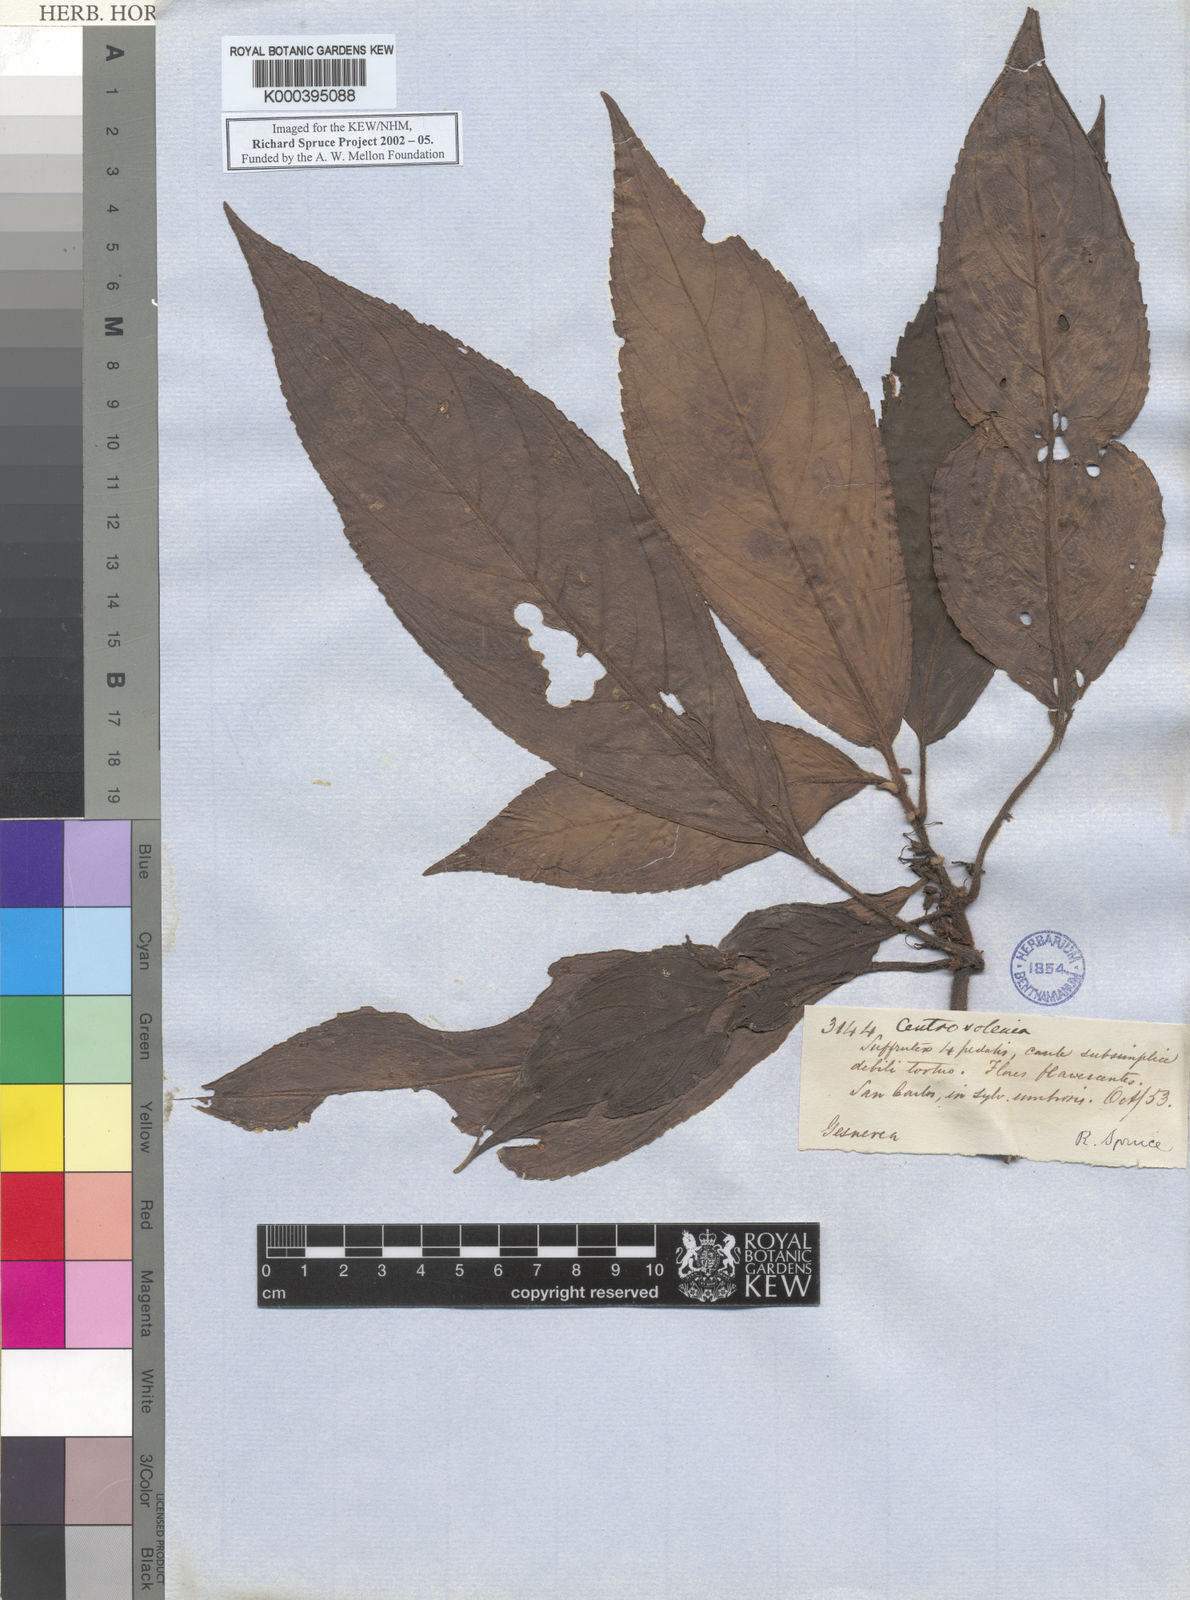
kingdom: Plantae
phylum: Tracheophyta
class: Magnoliopsida
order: Lamiales
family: Gesneriaceae
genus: Nautilocalyx
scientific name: Nautilocalyx
